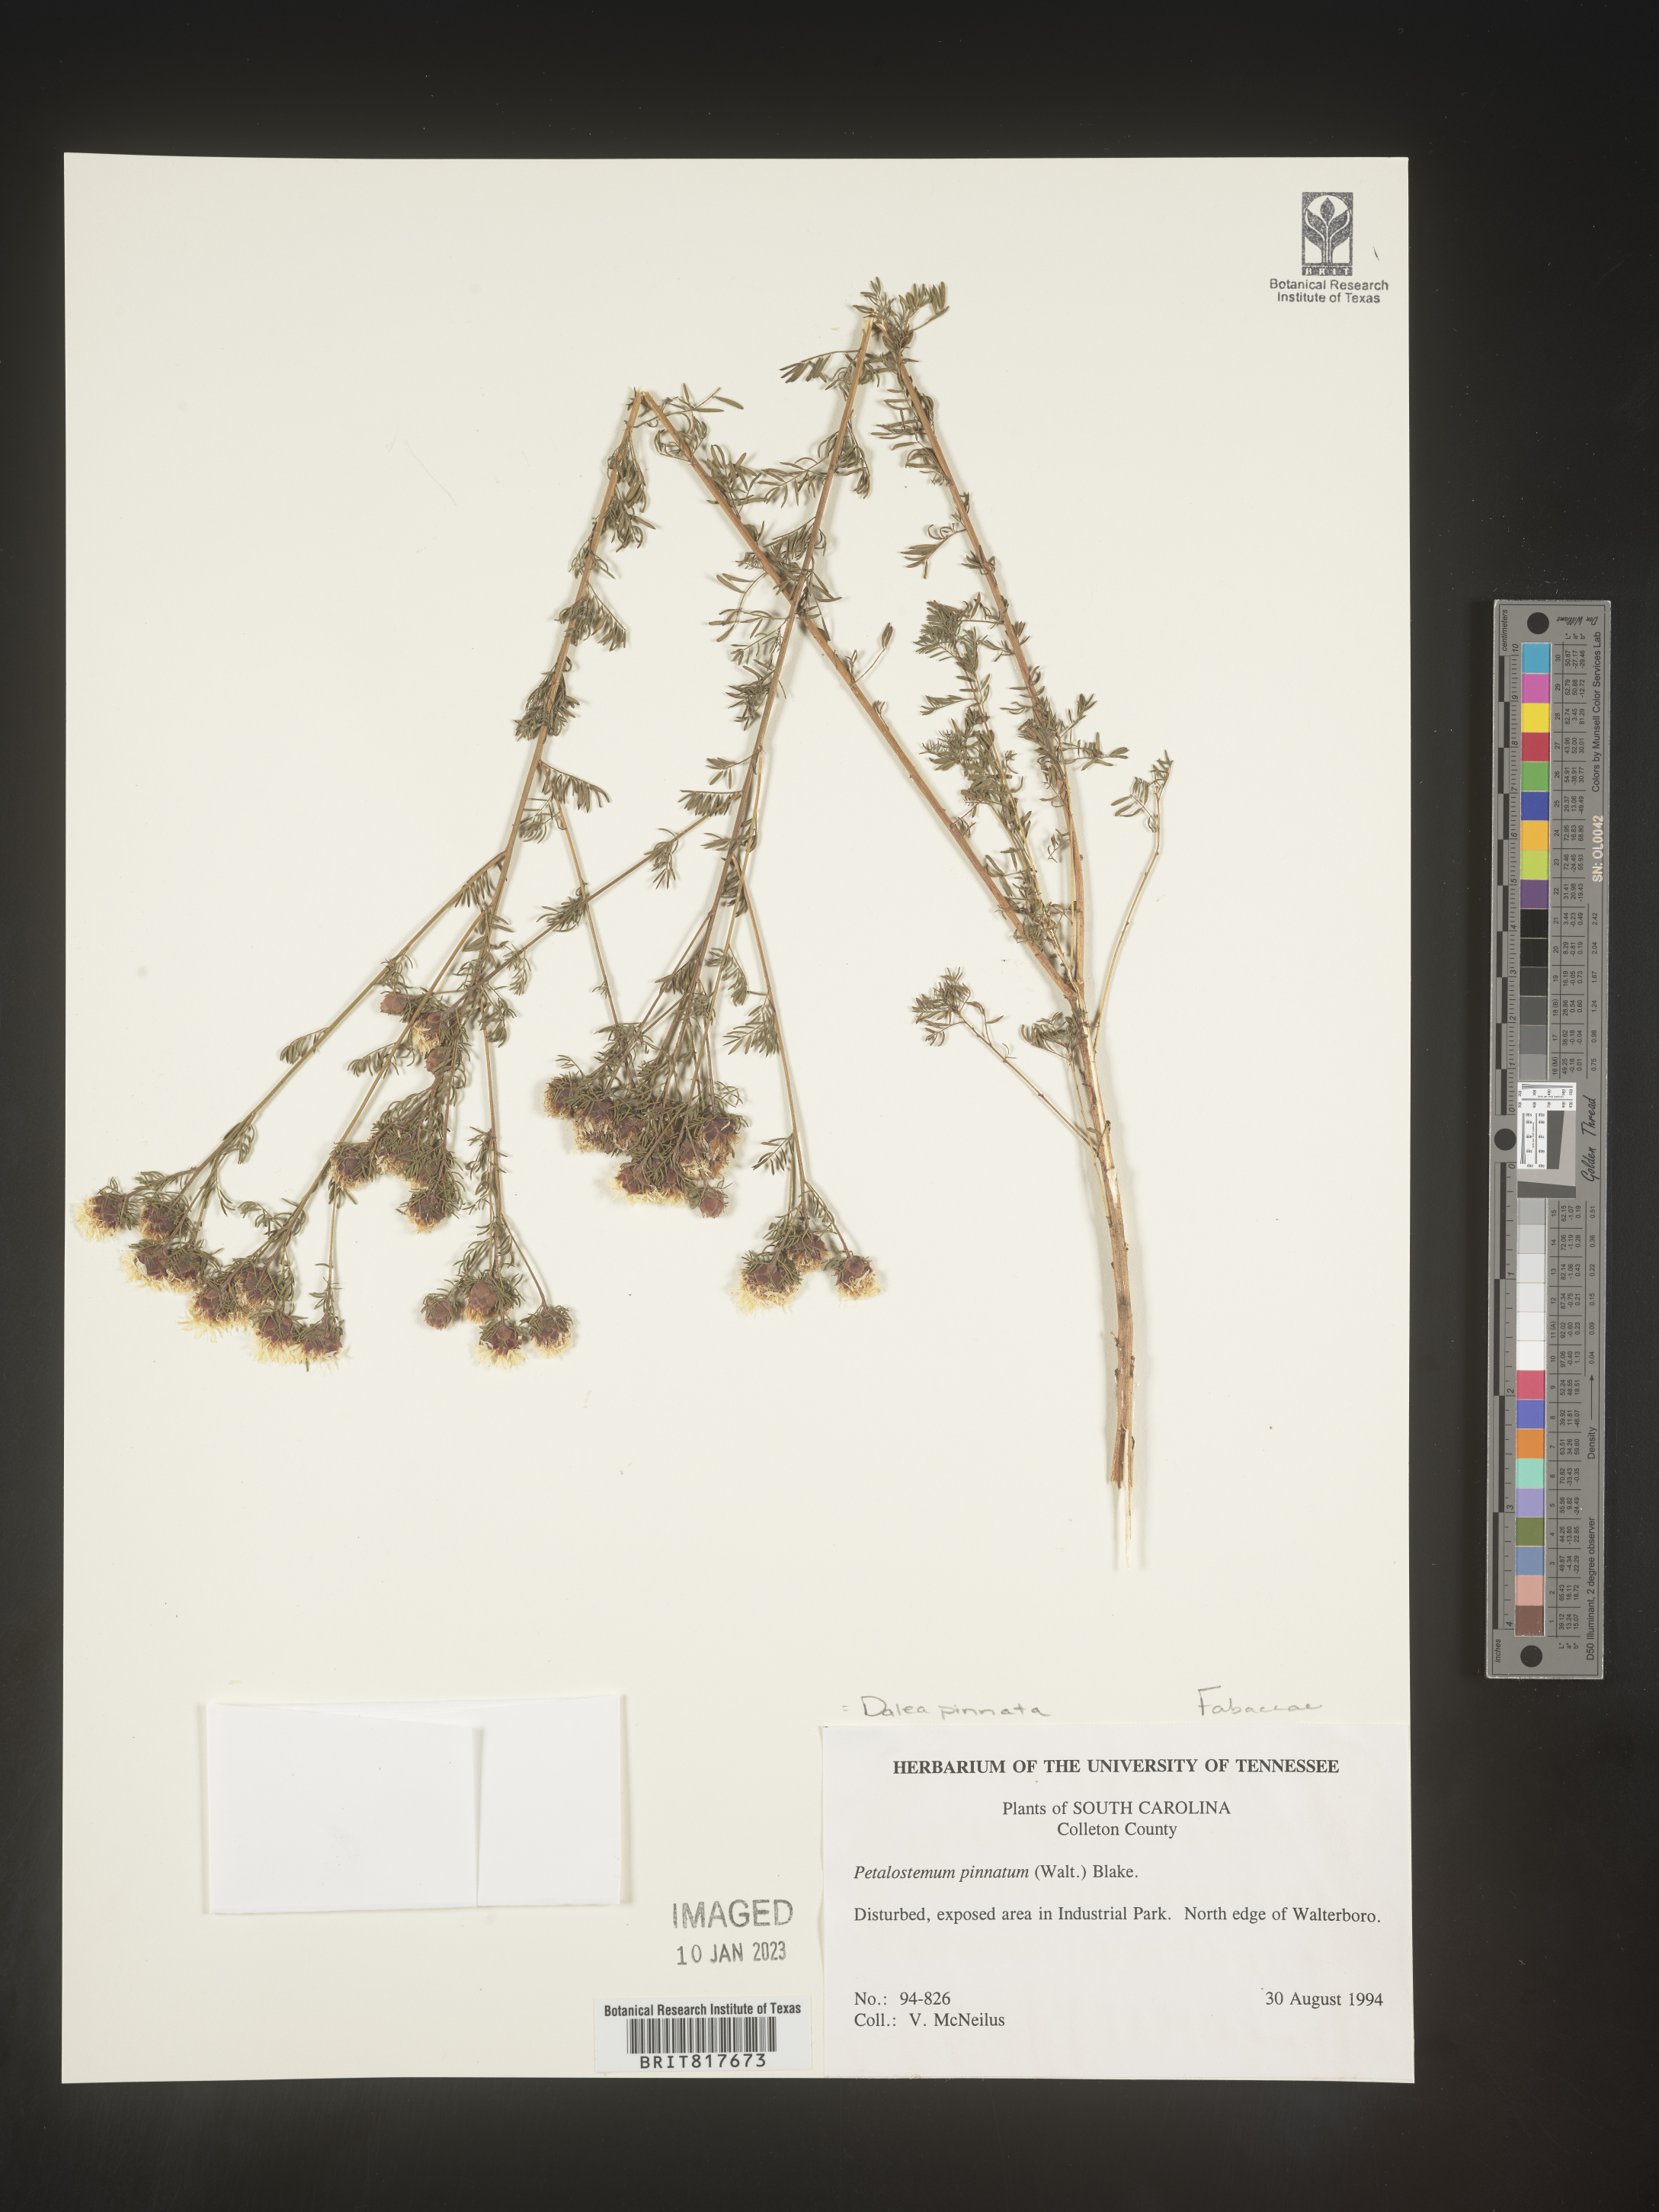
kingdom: Plantae
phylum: Tracheophyta
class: Magnoliopsida
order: Fabales
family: Fabaceae
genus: Dalea
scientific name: Dalea pinnata
